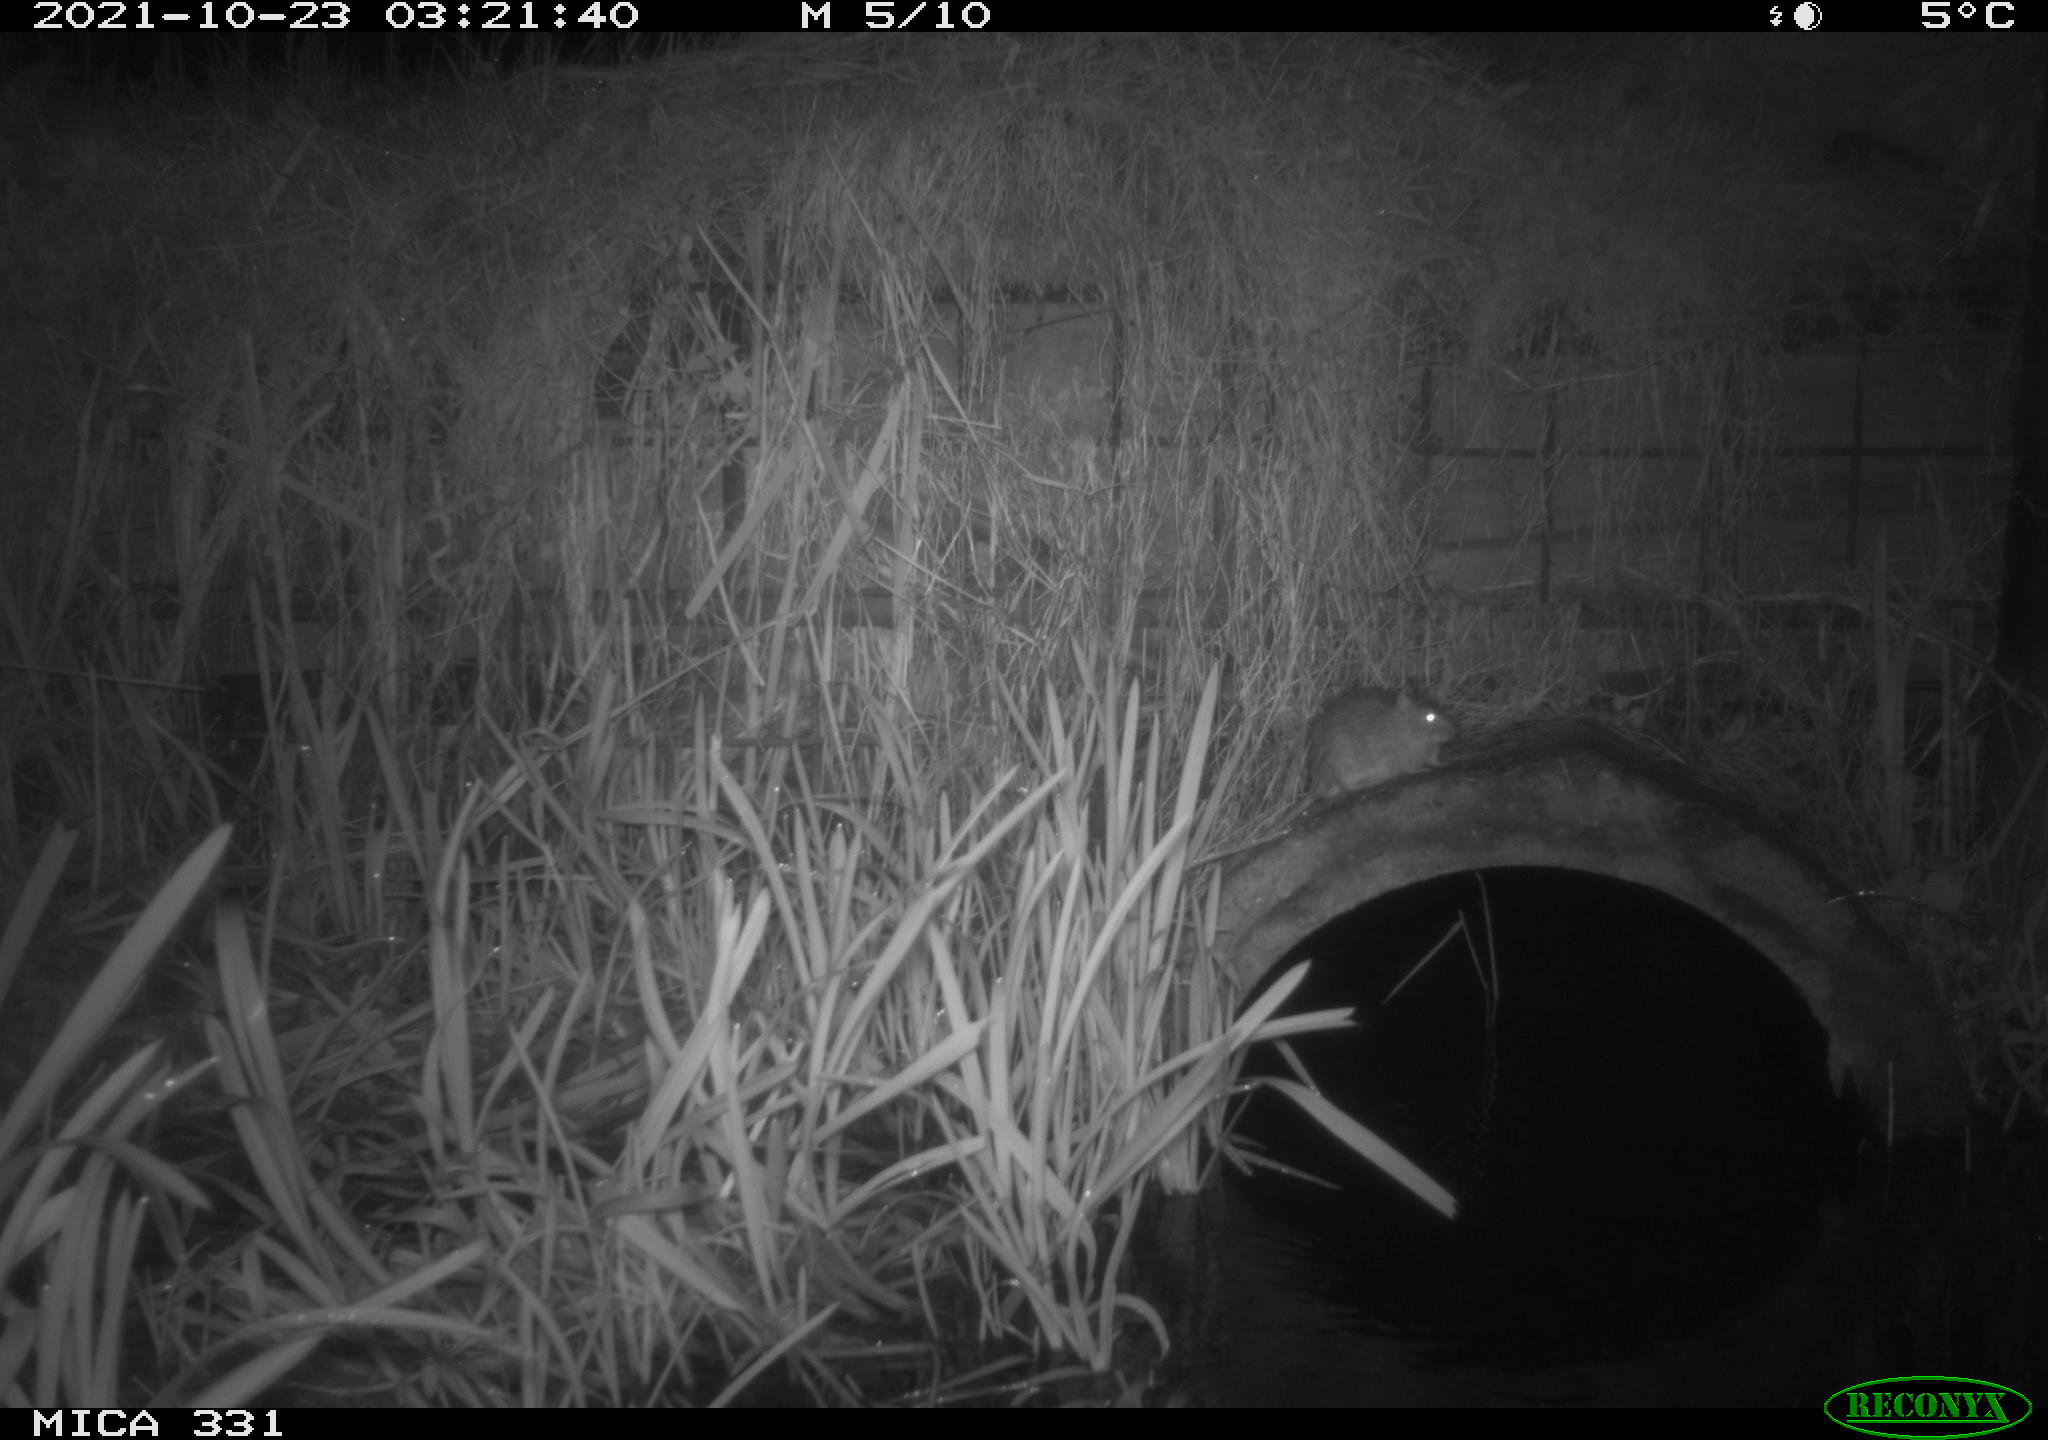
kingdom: Animalia
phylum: Chordata
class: Mammalia
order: Rodentia
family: Muridae
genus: Rattus
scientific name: Rattus norvegicus
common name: Brown rat
